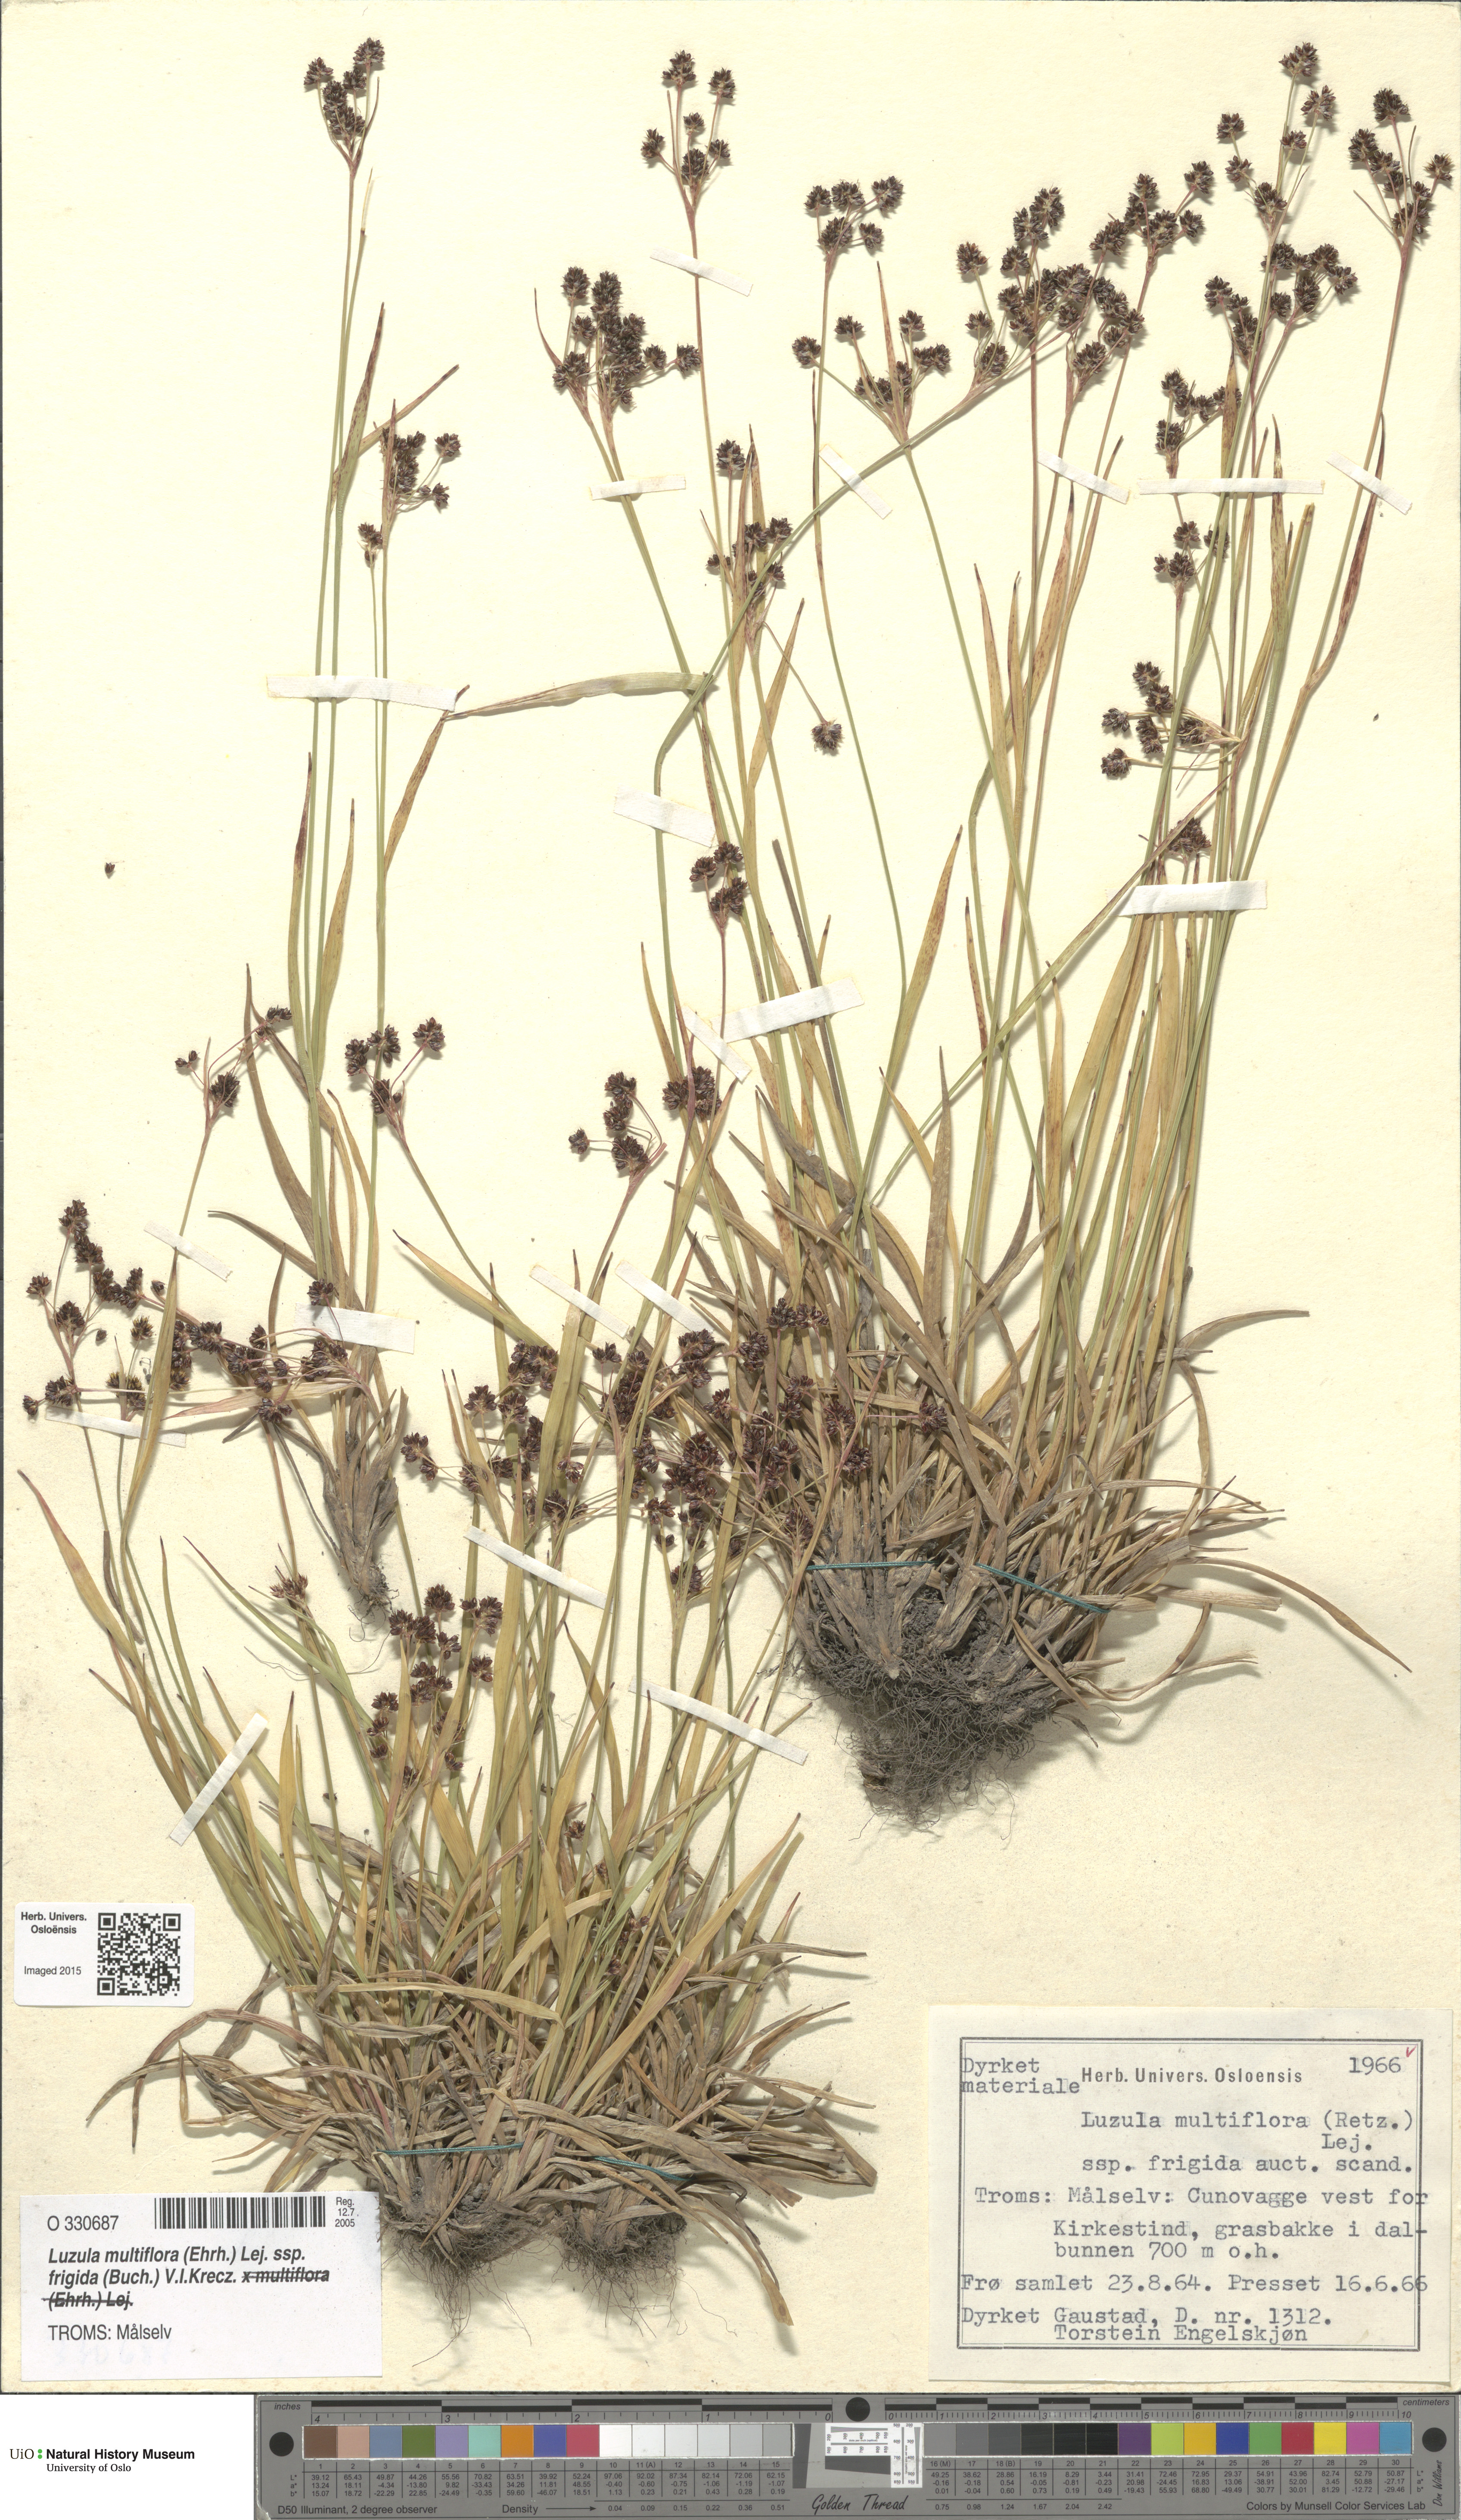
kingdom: Plantae
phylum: Tracheophyta
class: Liliopsida
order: Poales
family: Juncaceae
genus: Luzula
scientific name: Luzula multiflora
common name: Heath wood-rush
